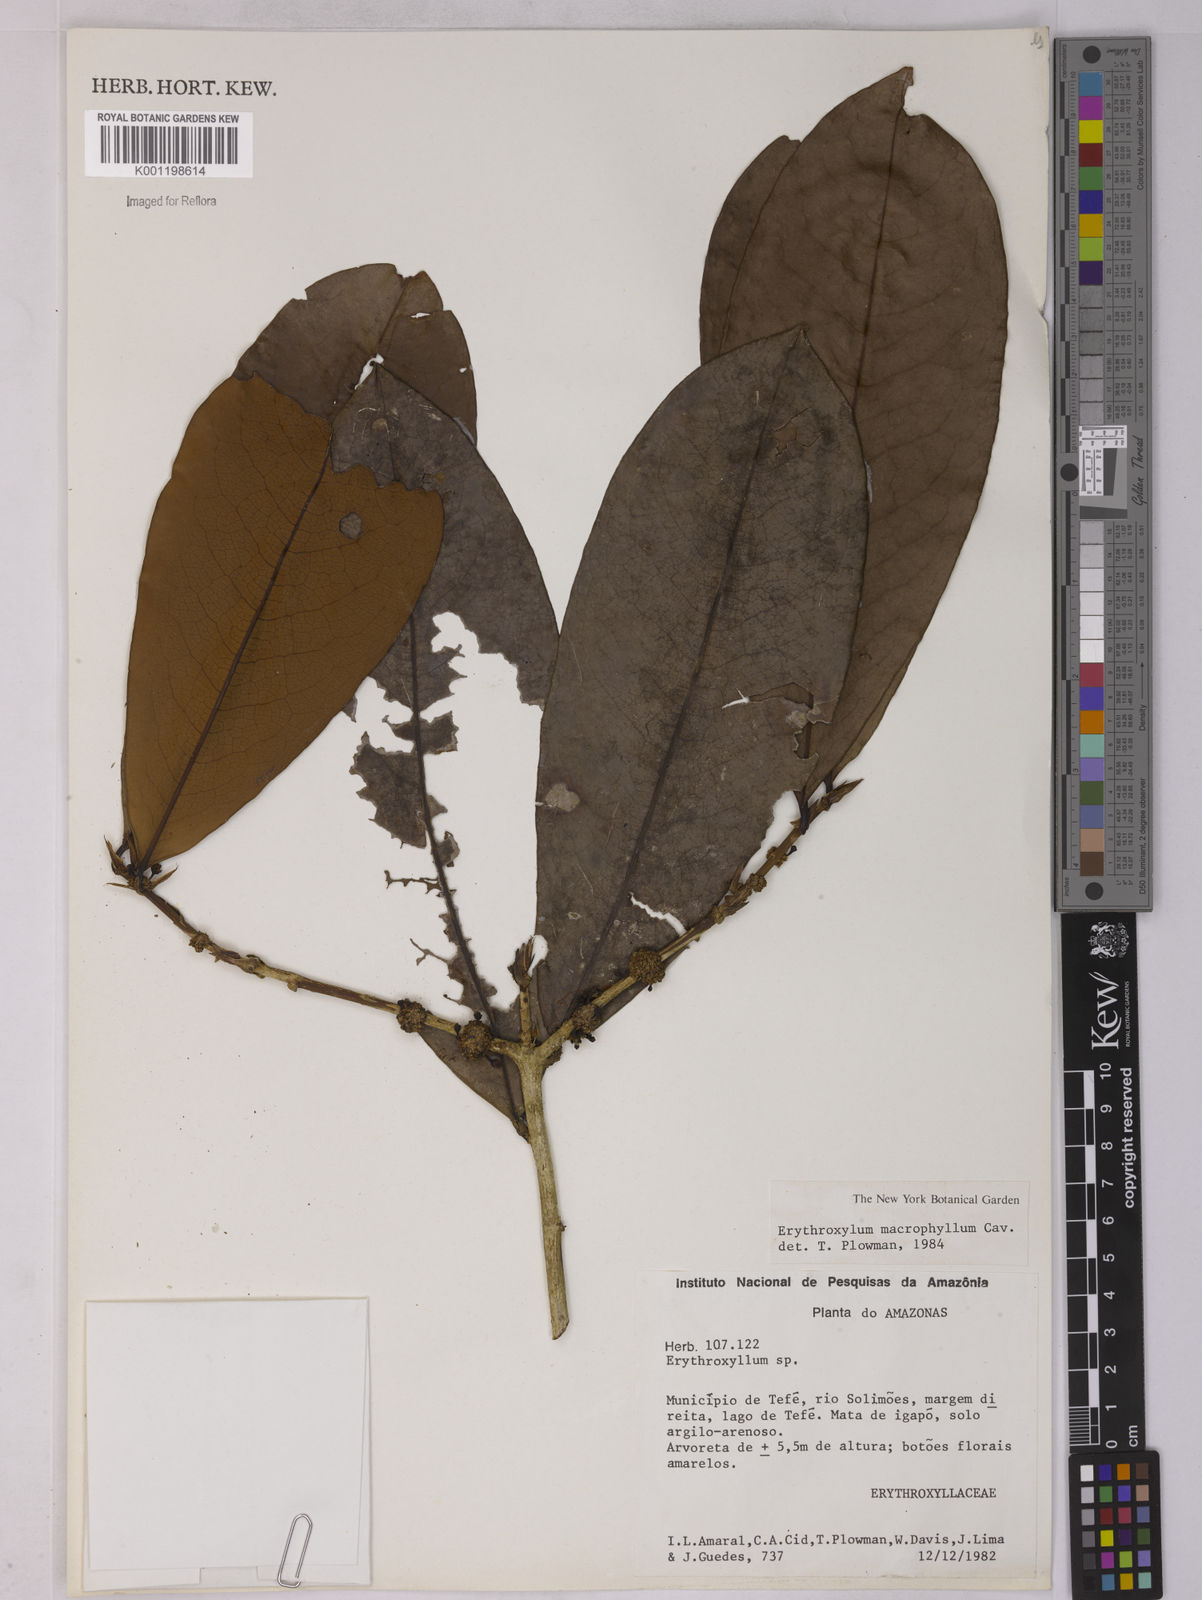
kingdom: Plantae
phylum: Tracheophyta
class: Magnoliopsida
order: Malpighiales
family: Erythroxylaceae
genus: Erythroxylum
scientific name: Erythroxylum macrophyllum
